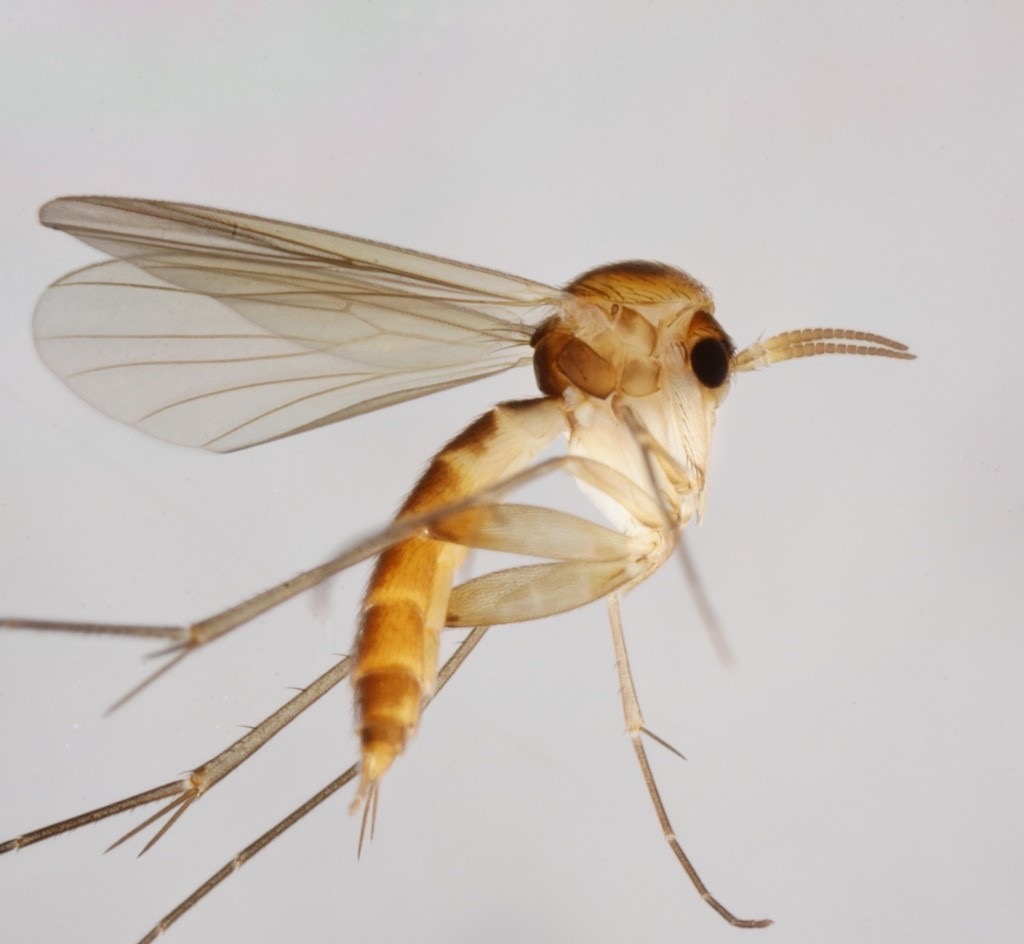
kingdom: Animalia
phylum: Arthropoda
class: Insecta
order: Diptera
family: Mycetophilidae
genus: Brevicornu
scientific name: Brevicornu fuscipenne
